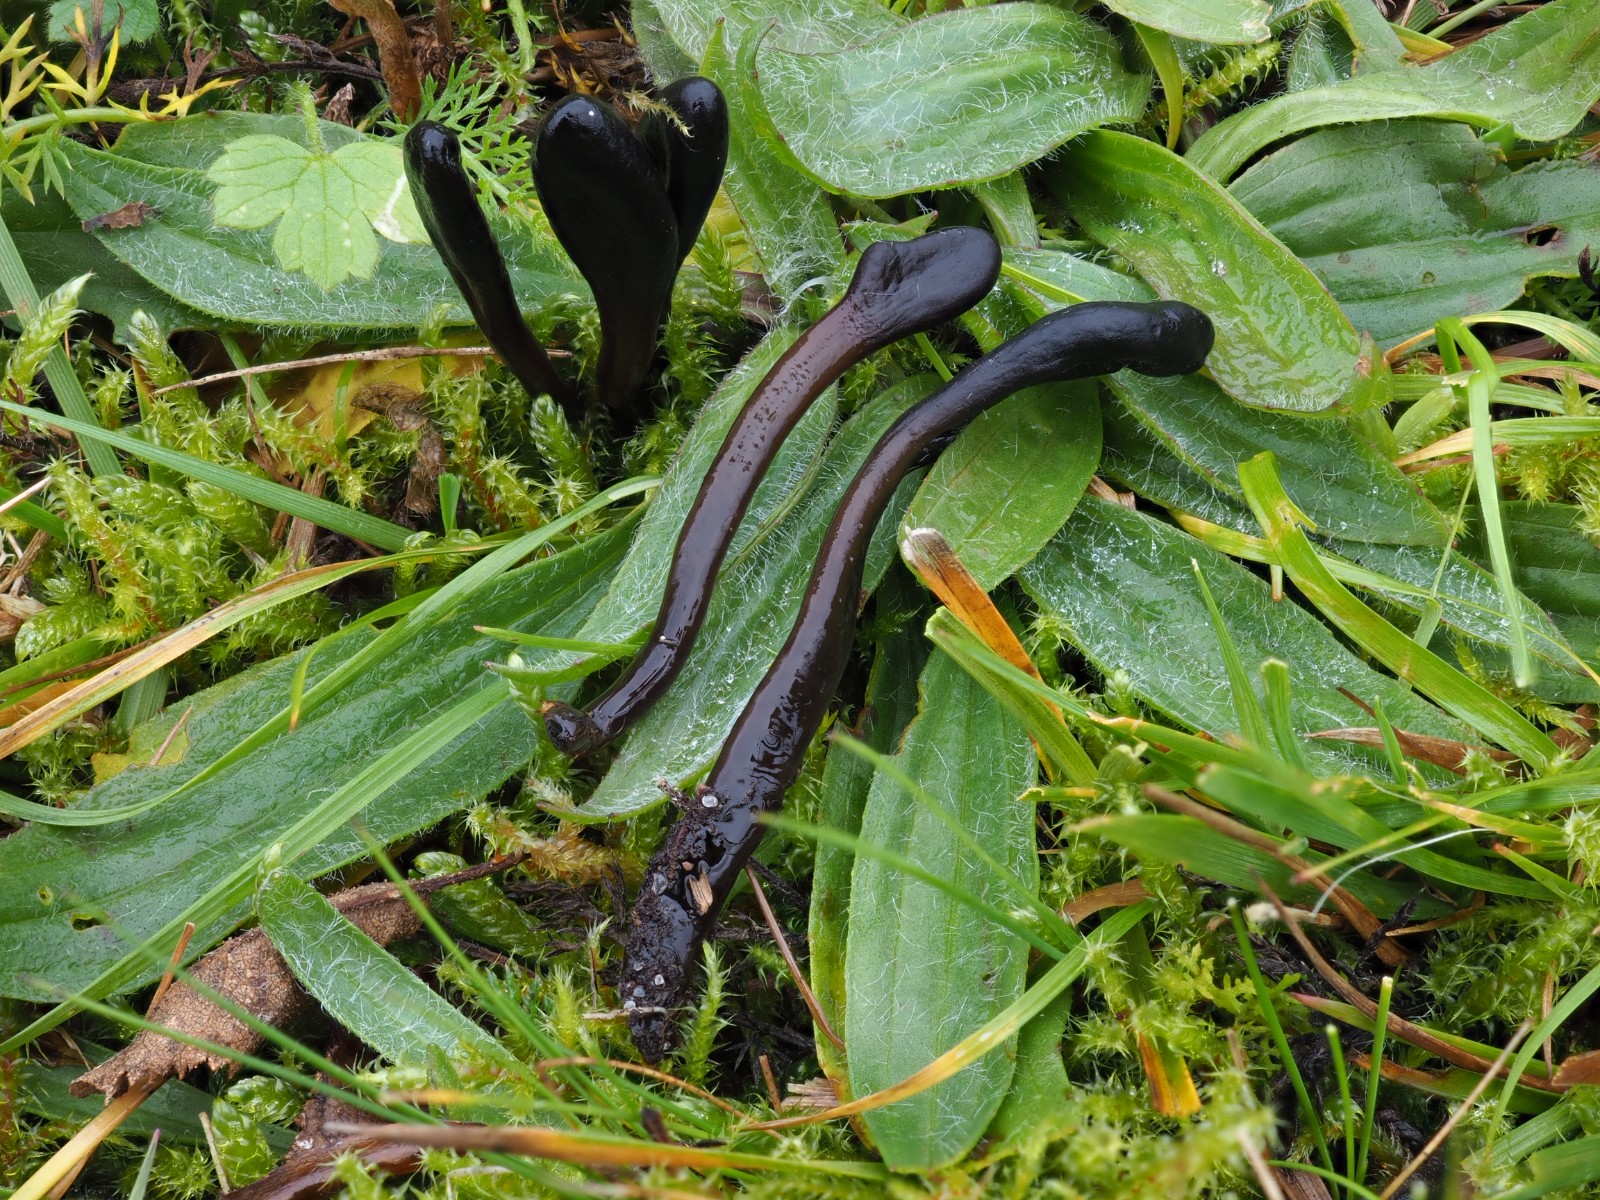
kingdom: Fungi
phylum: Ascomycota
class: Geoglossomycetes
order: Geoglossales
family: Geoglossaceae
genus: Glutinoglossum
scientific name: Glutinoglossum glutinosum
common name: slimet jordtunge
